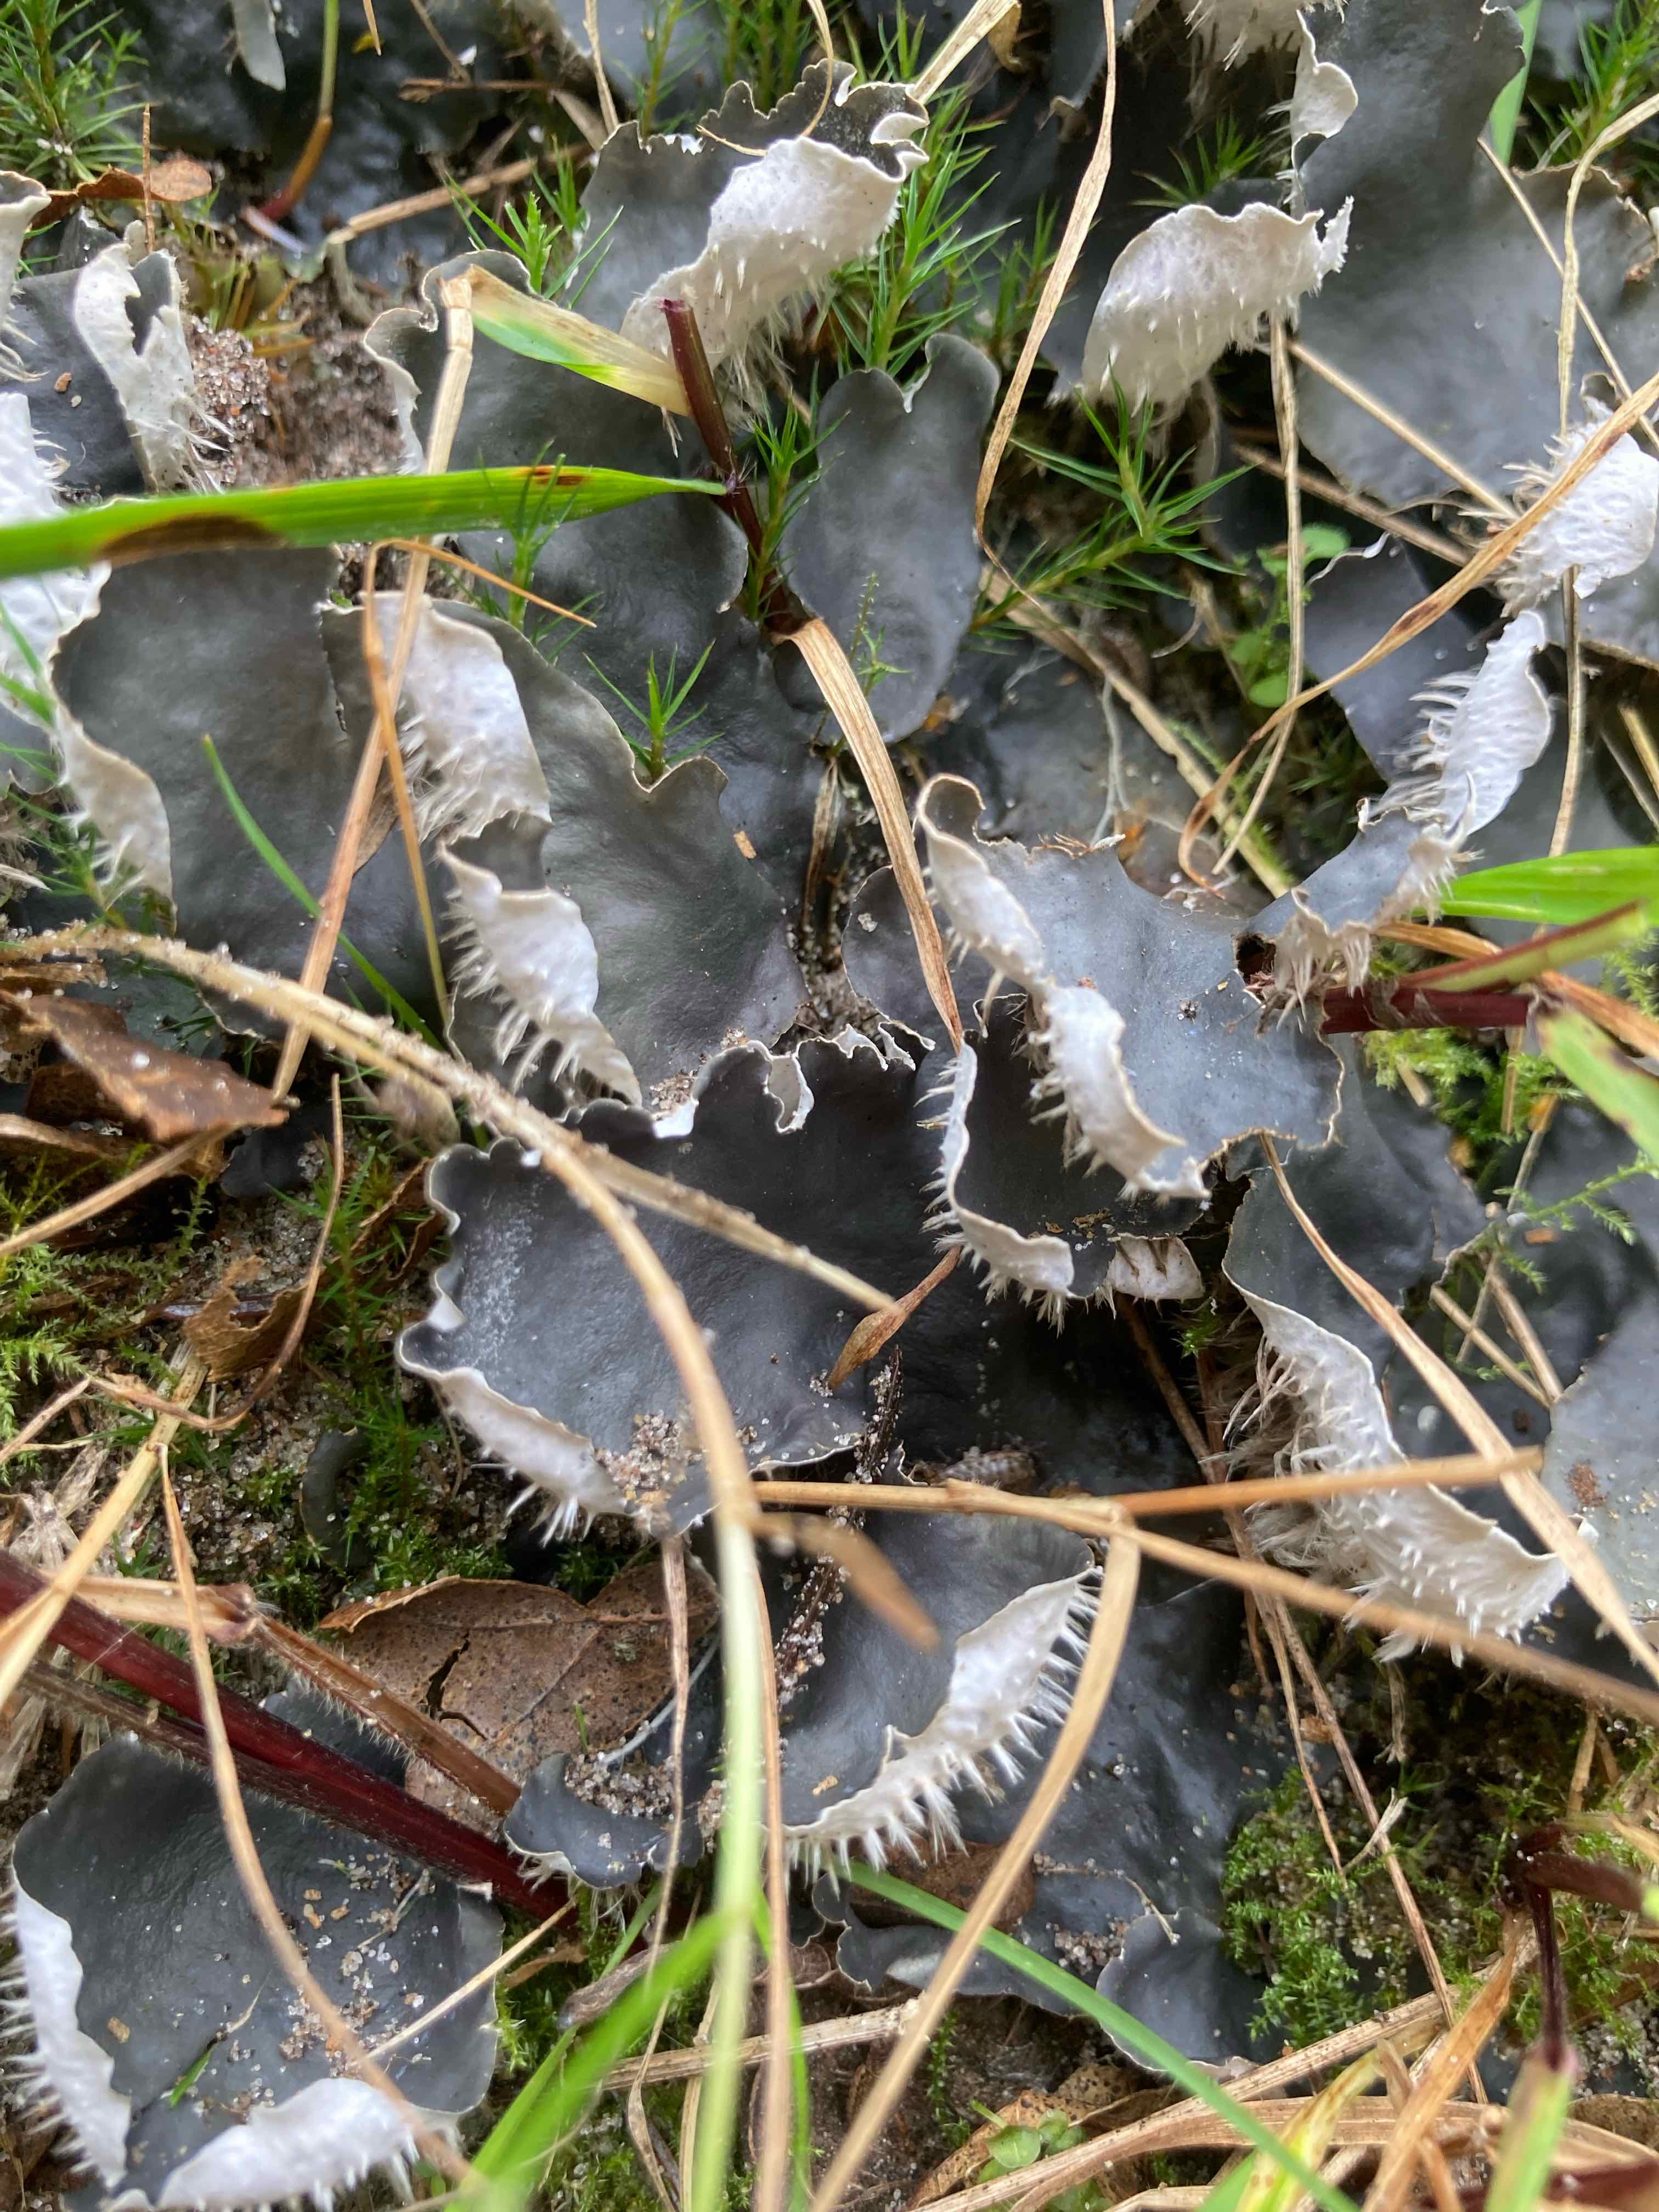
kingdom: Fungi
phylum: Ascomycota
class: Lecanoromycetes
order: Peltigerales
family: Peltigeraceae
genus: Peltigera
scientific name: Peltigera hymenina
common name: hinde-skjoldlav
